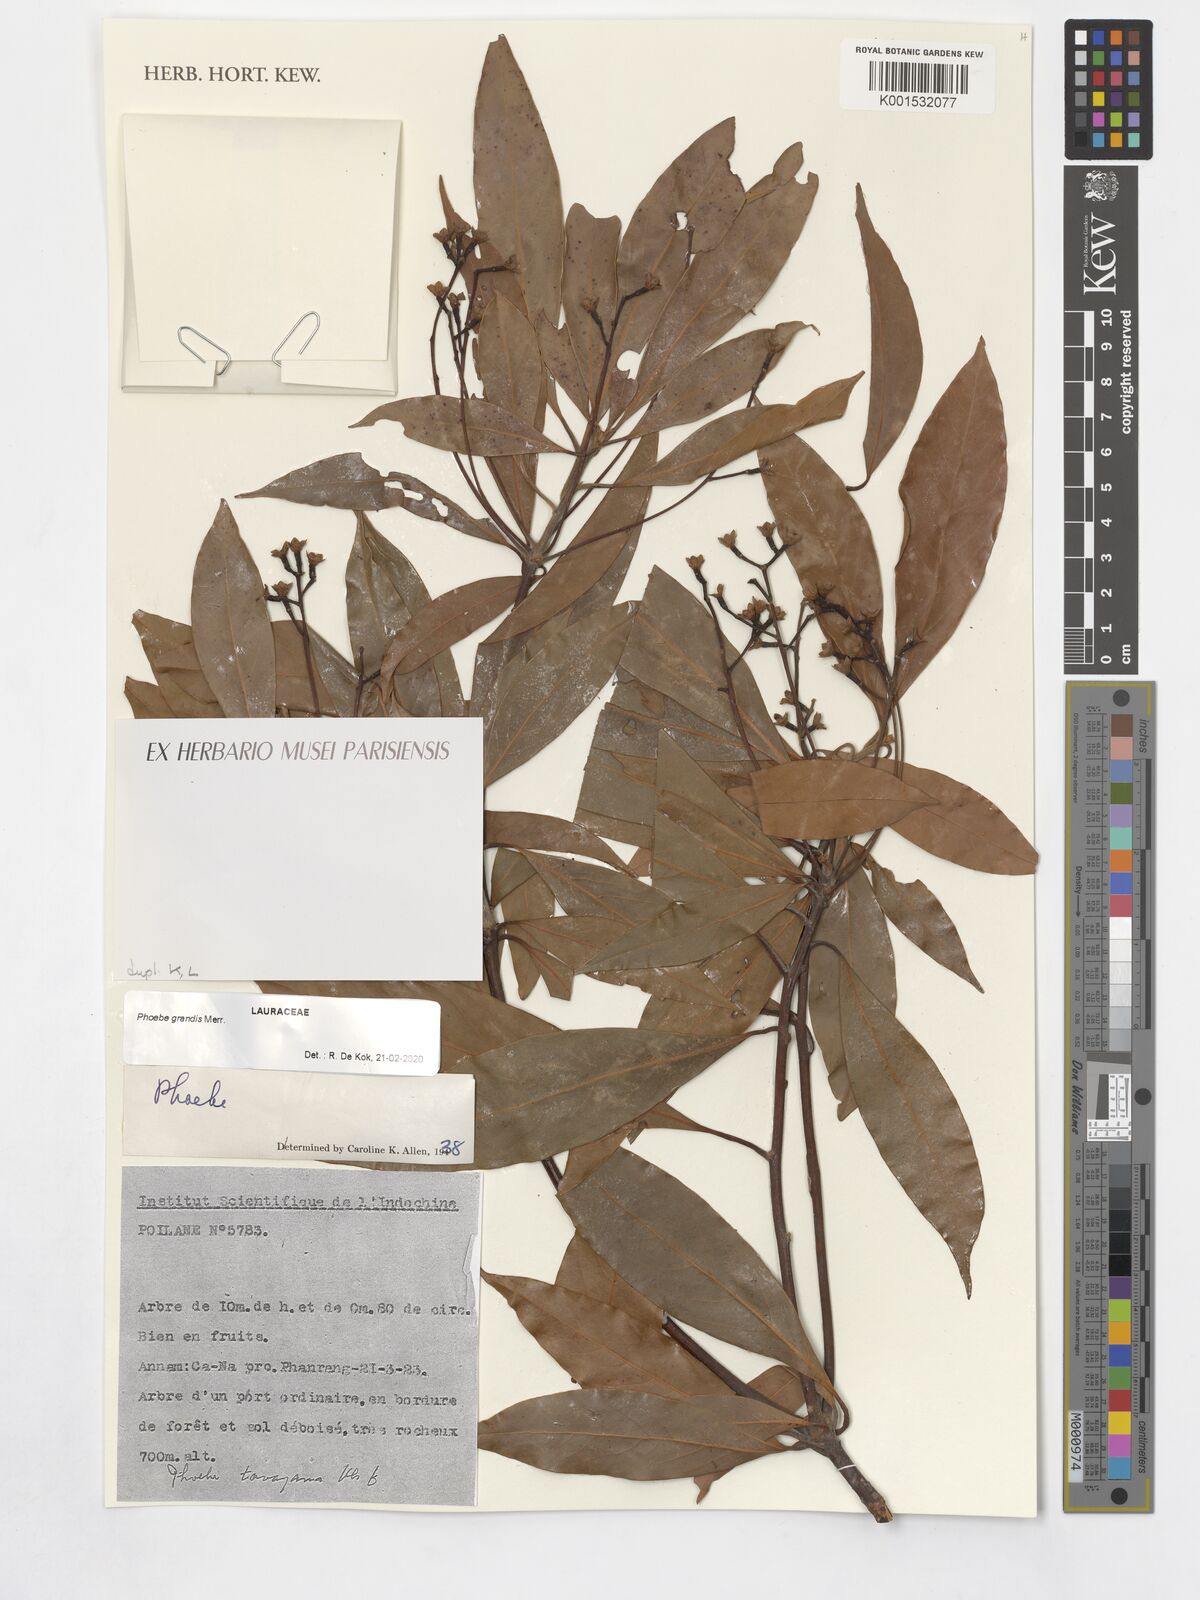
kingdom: Plantae
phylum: Tracheophyta
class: Magnoliopsida
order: Laurales
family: Lauraceae
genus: Phoebe
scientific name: Phoebe grandis
